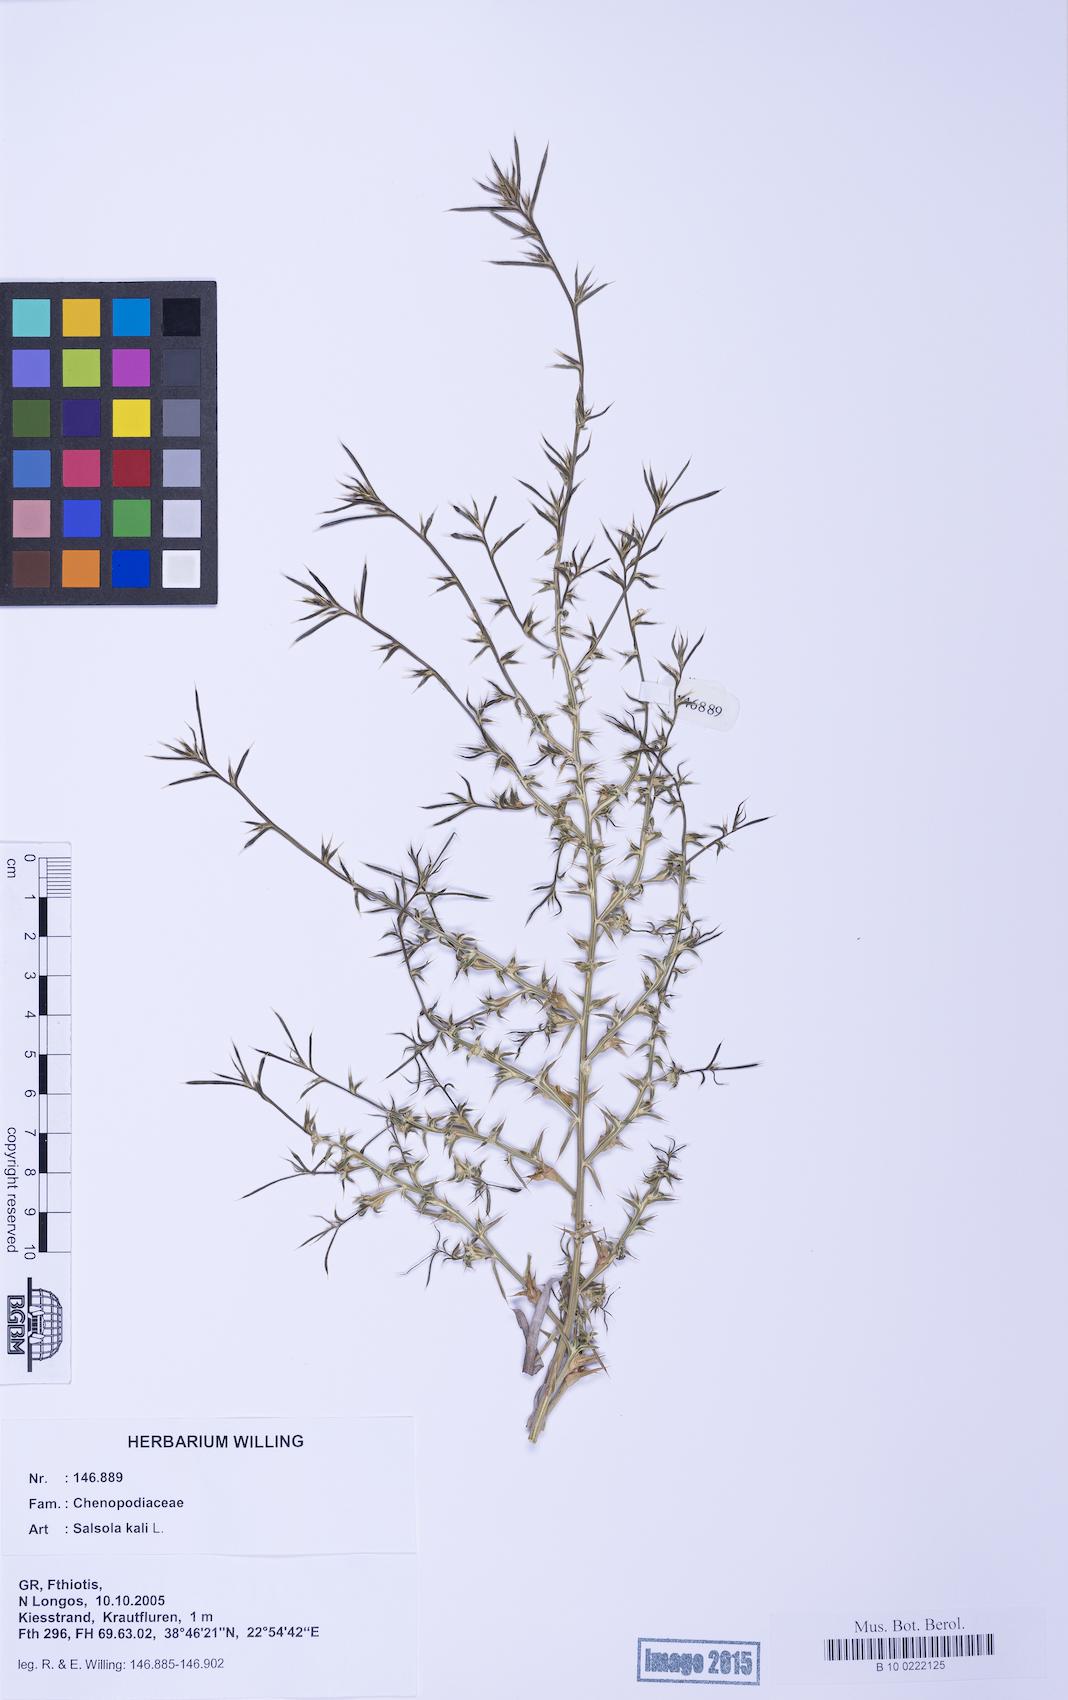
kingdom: Plantae
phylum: Tracheophyta
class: Magnoliopsida
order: Caryophyllales
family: Amaranthaceae
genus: Salsola
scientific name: Salsola kali
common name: Saltwort
